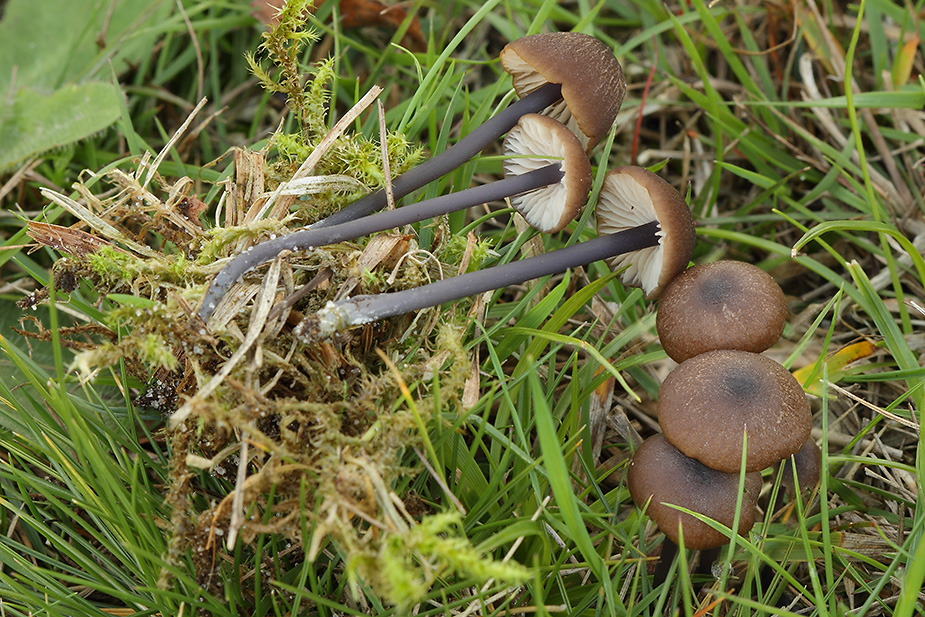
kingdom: Fungi
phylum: Basidiomycota
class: Agaricomycetes
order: Agaricales
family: Entolomataceae
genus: Entoloma
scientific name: Entoloma asprellum
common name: ru rødblad
